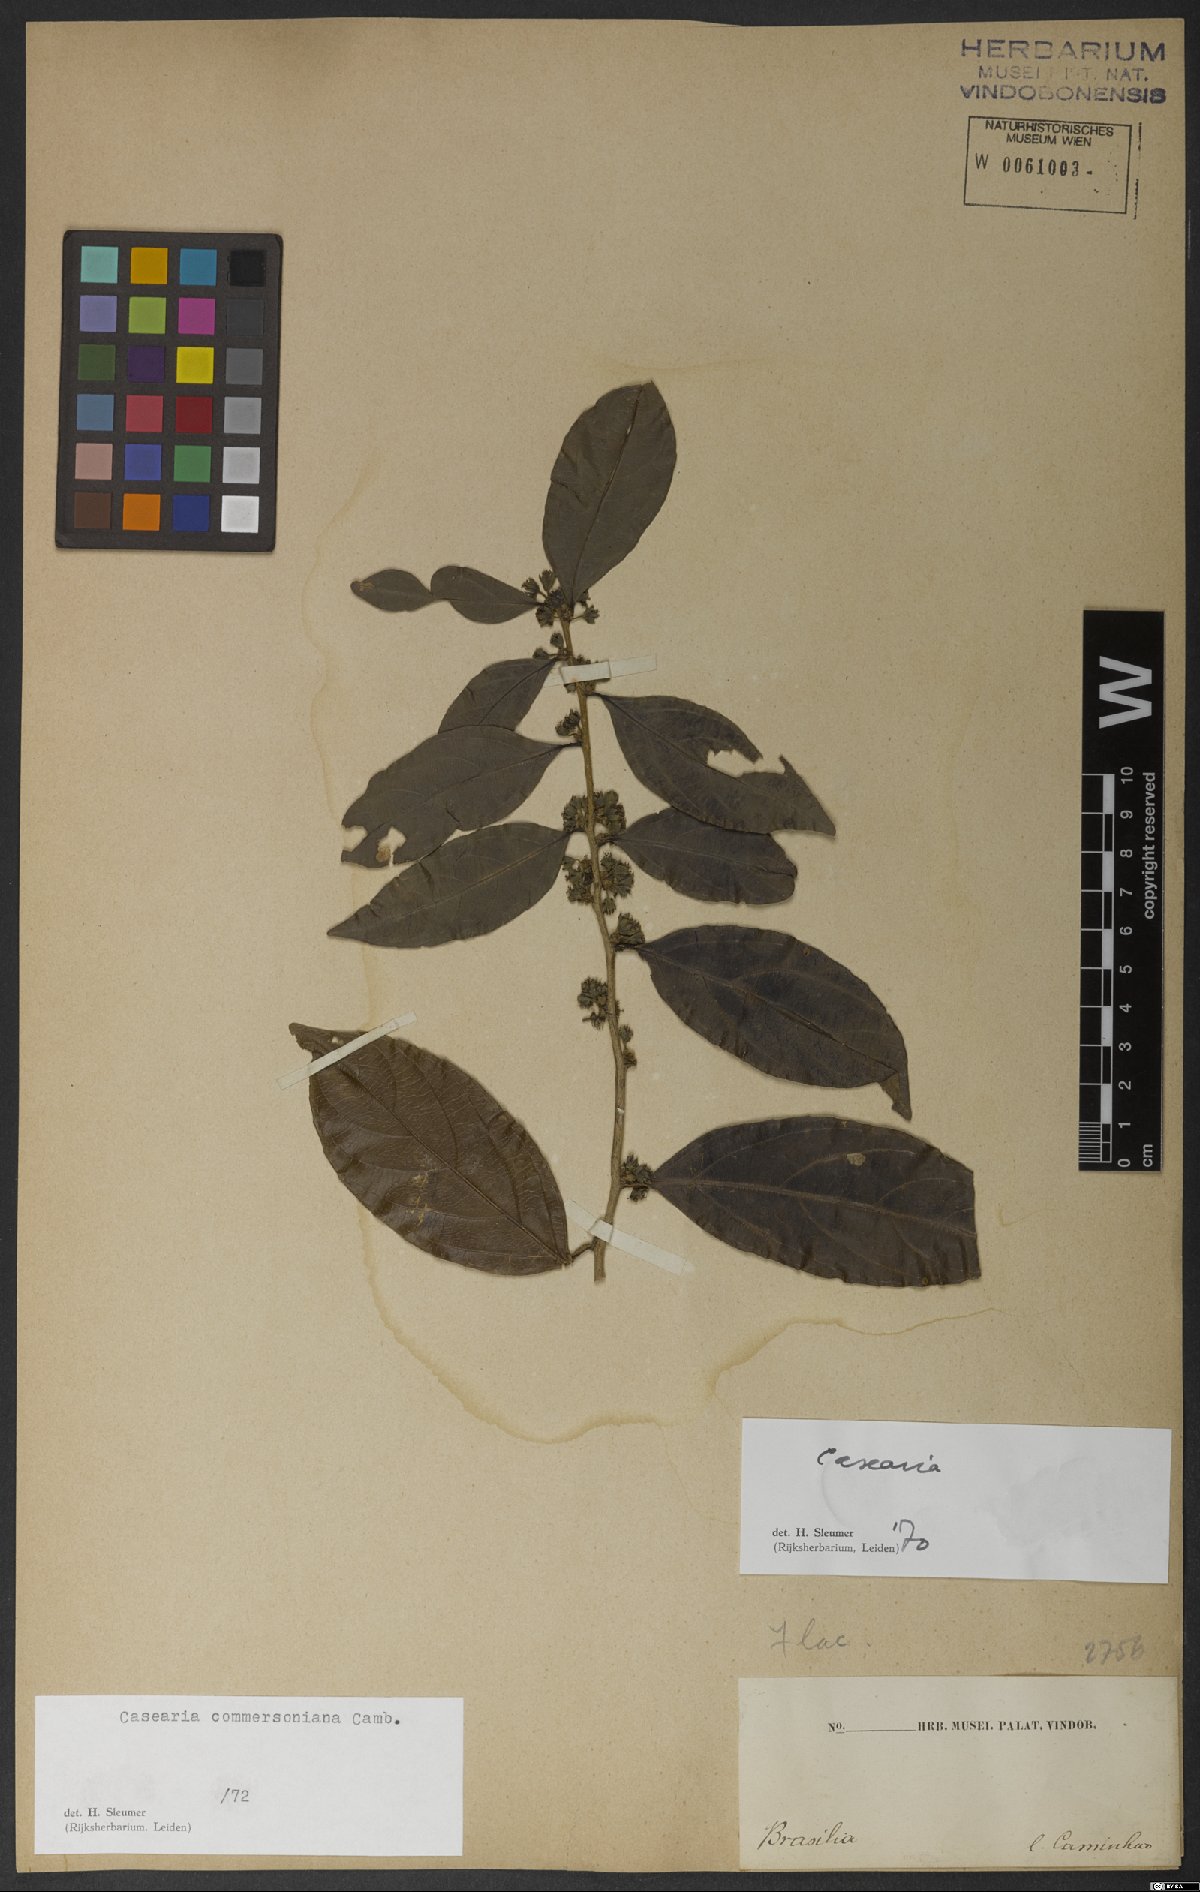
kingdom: Plantae
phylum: Tracheophyta
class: Magnoliopsida
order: Malpighiales
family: Salicaceae
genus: Piparea
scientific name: Piparea dentata
